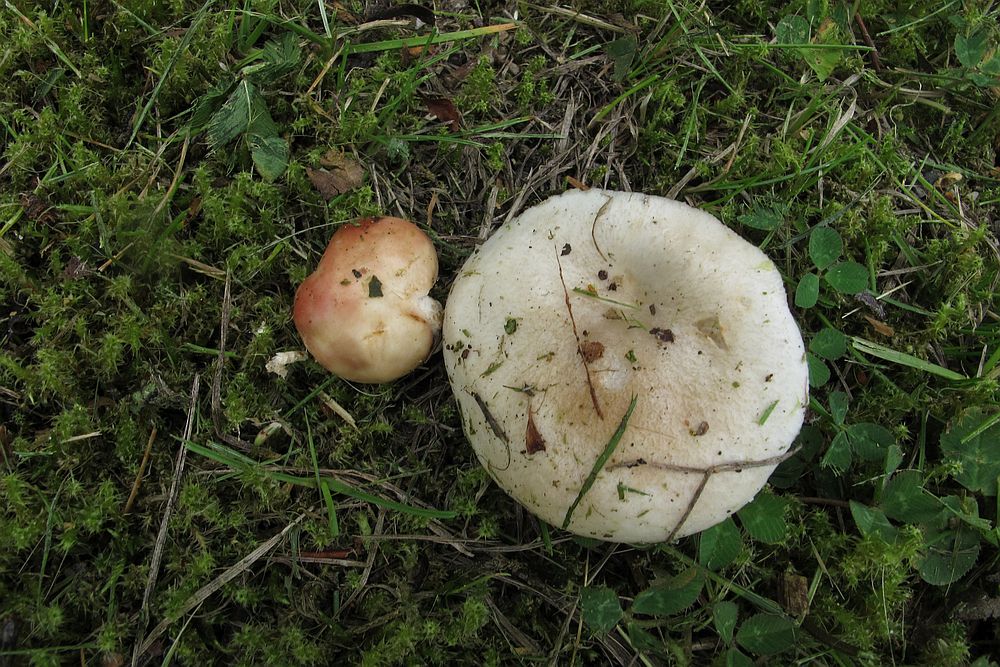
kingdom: Fungi
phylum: Basidiomycota
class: Agaricomycetes
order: Russulales
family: Russulaceae
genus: Russula
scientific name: Russula depallens
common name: falmende skørhat
